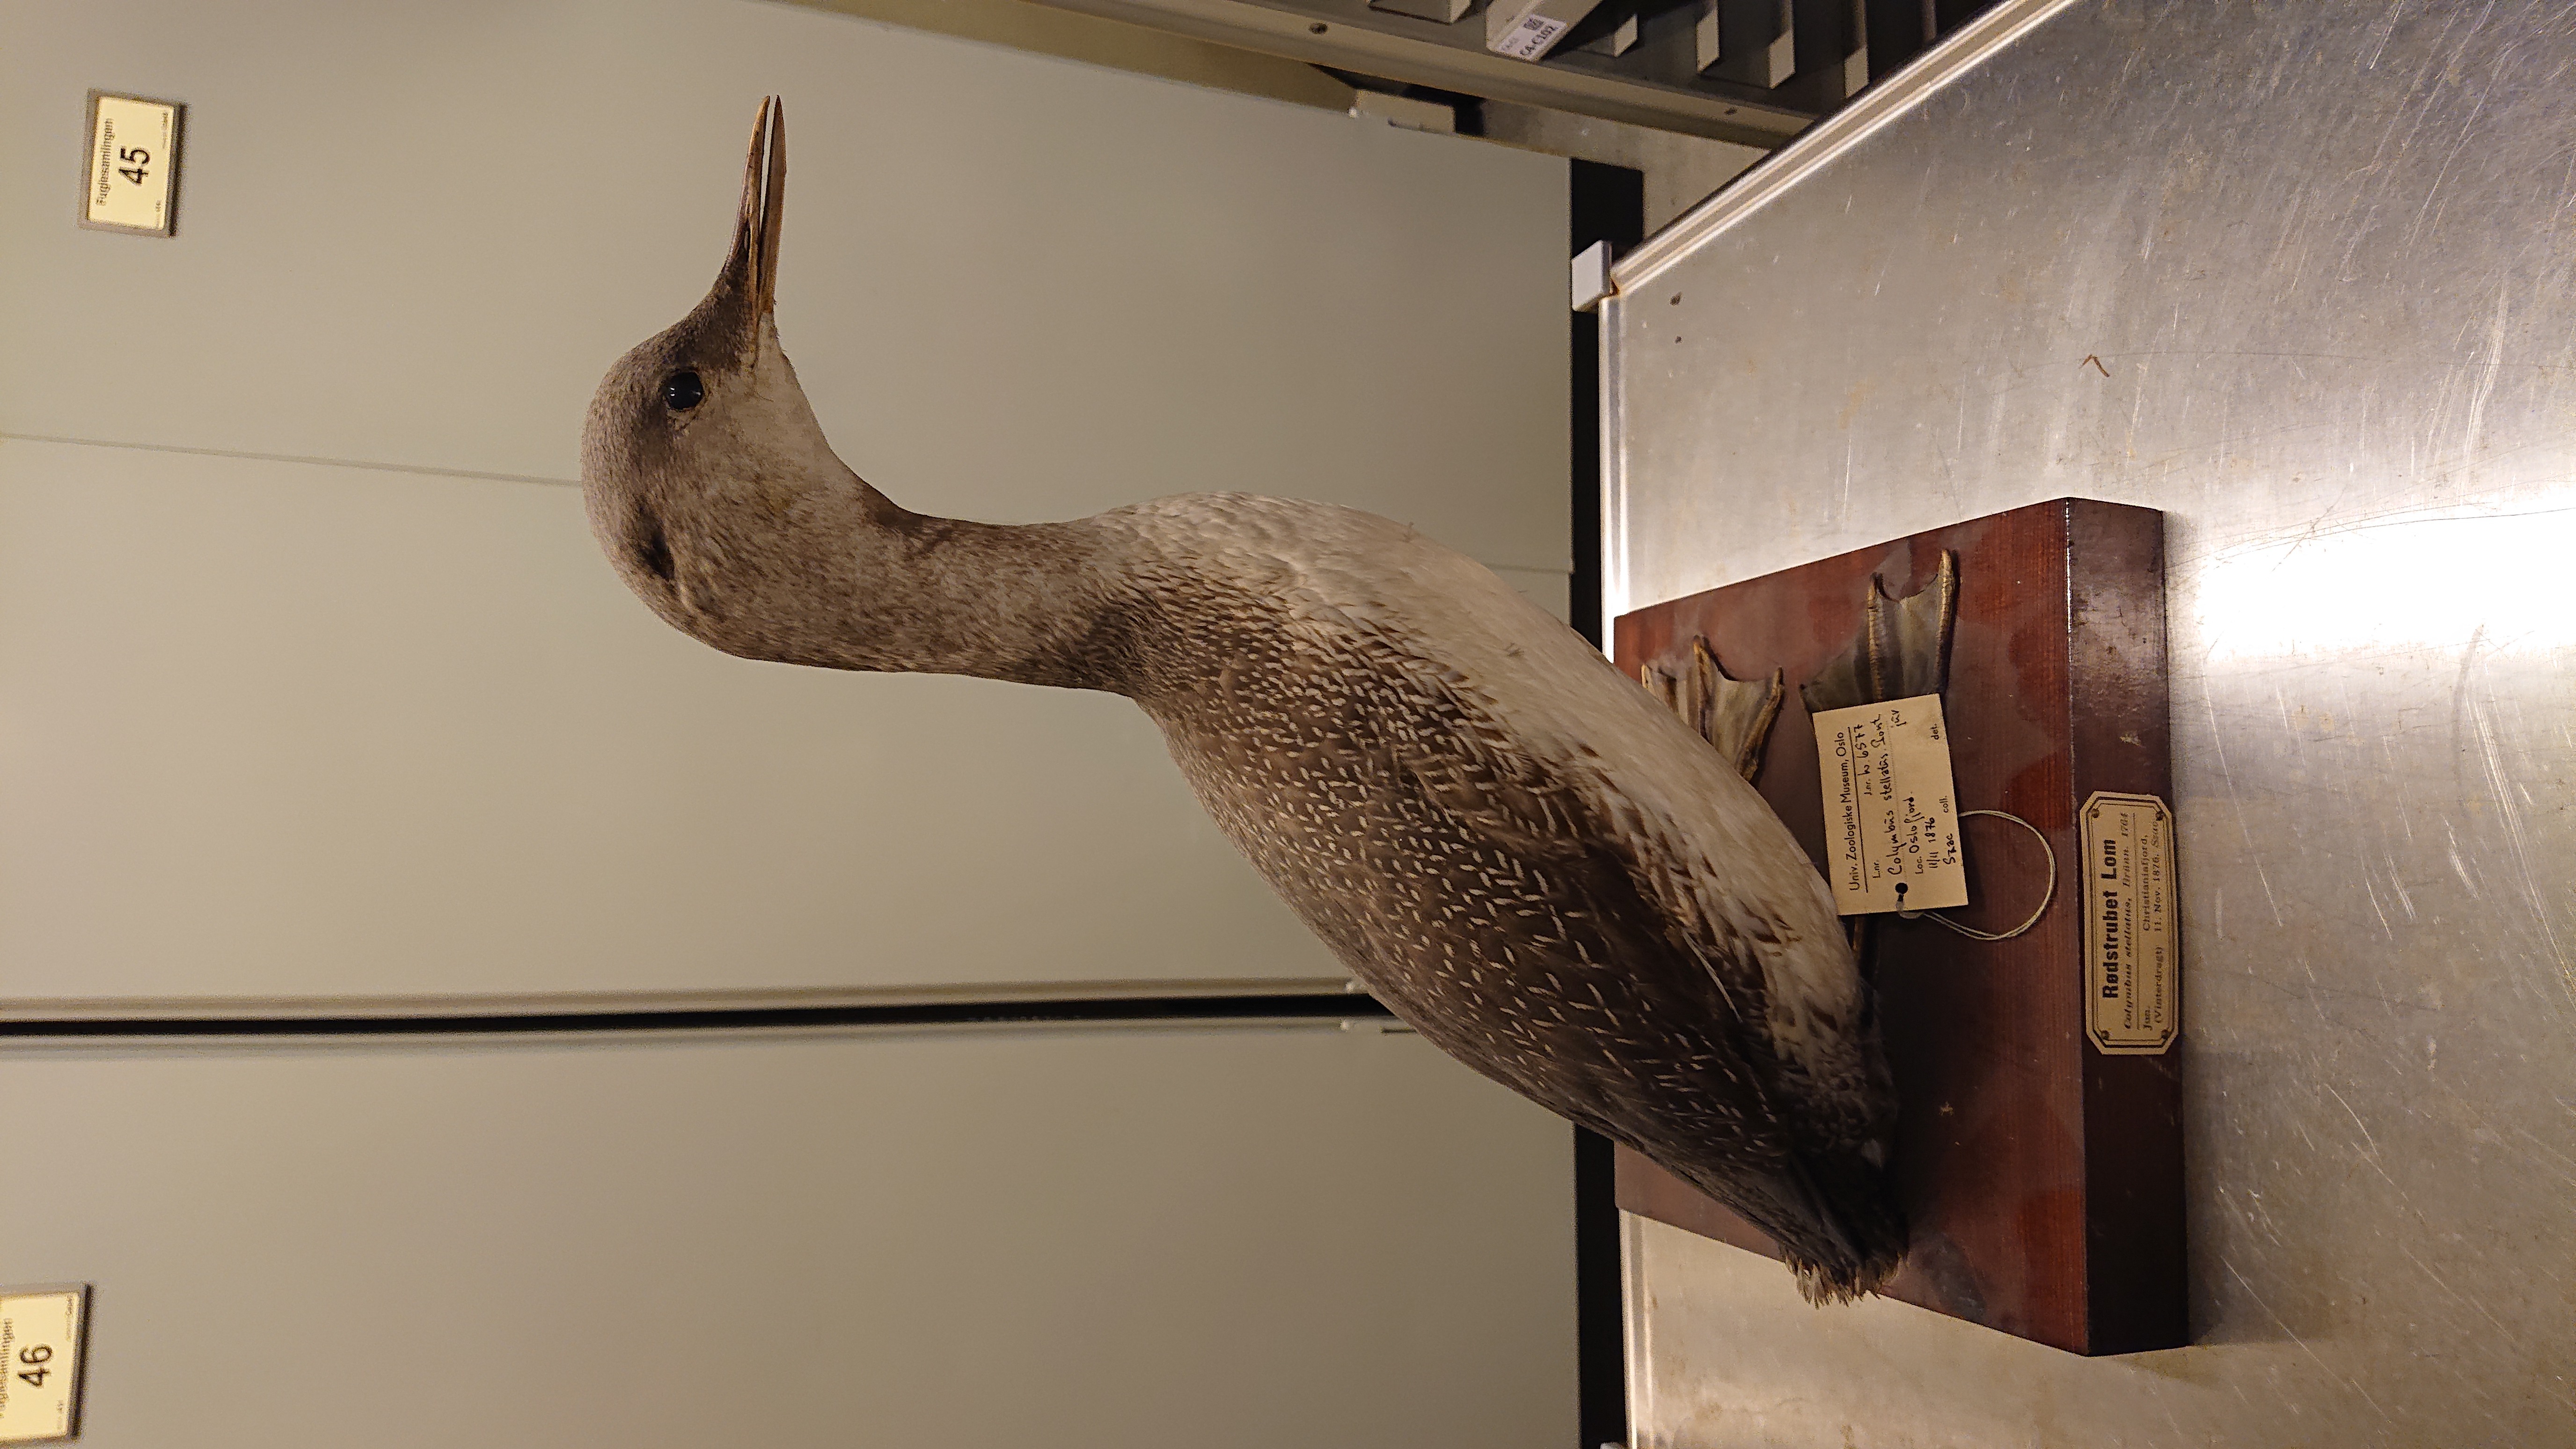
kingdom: Animalia
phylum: Chordata
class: Aves
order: Gaviiformes
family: Gaviidae
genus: Gavia
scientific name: Gavia stellata
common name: Red-throated loon
